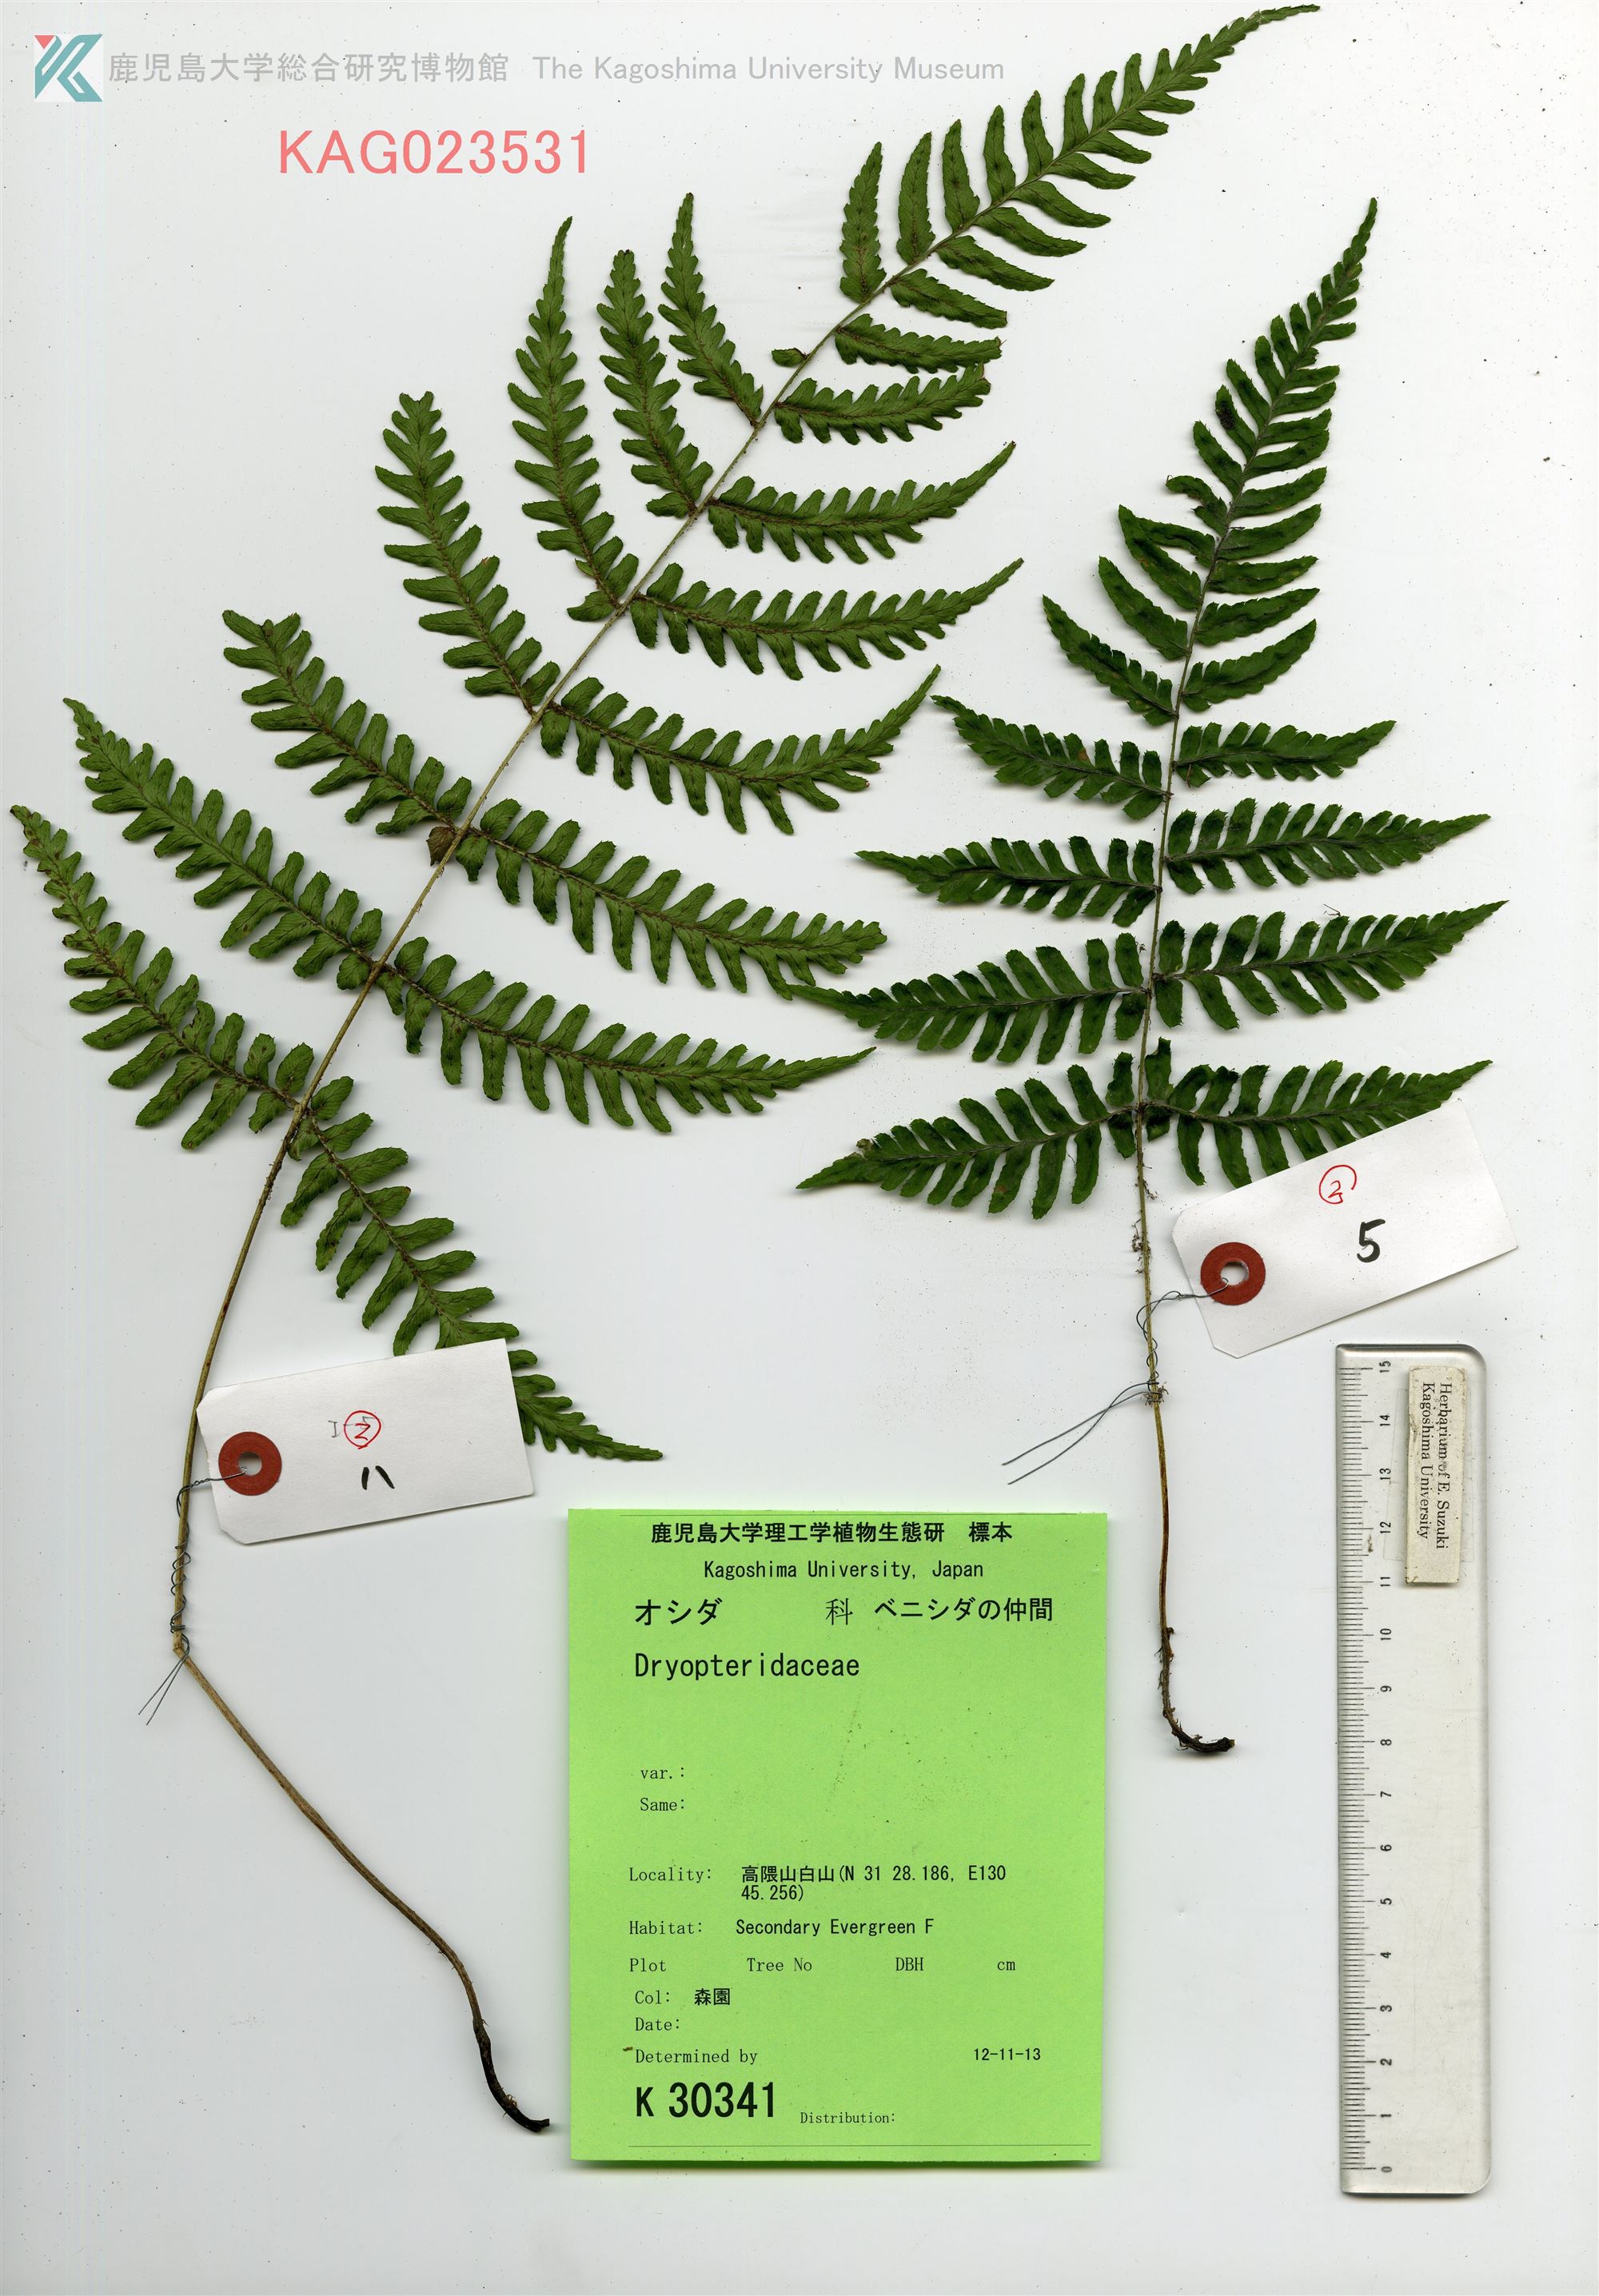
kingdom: Plantae
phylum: Tracheophyta
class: Polypodiopsida
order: Polypodiales
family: Dryopteridaceae
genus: Dryopteris
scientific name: Dryopteris erythrosora
